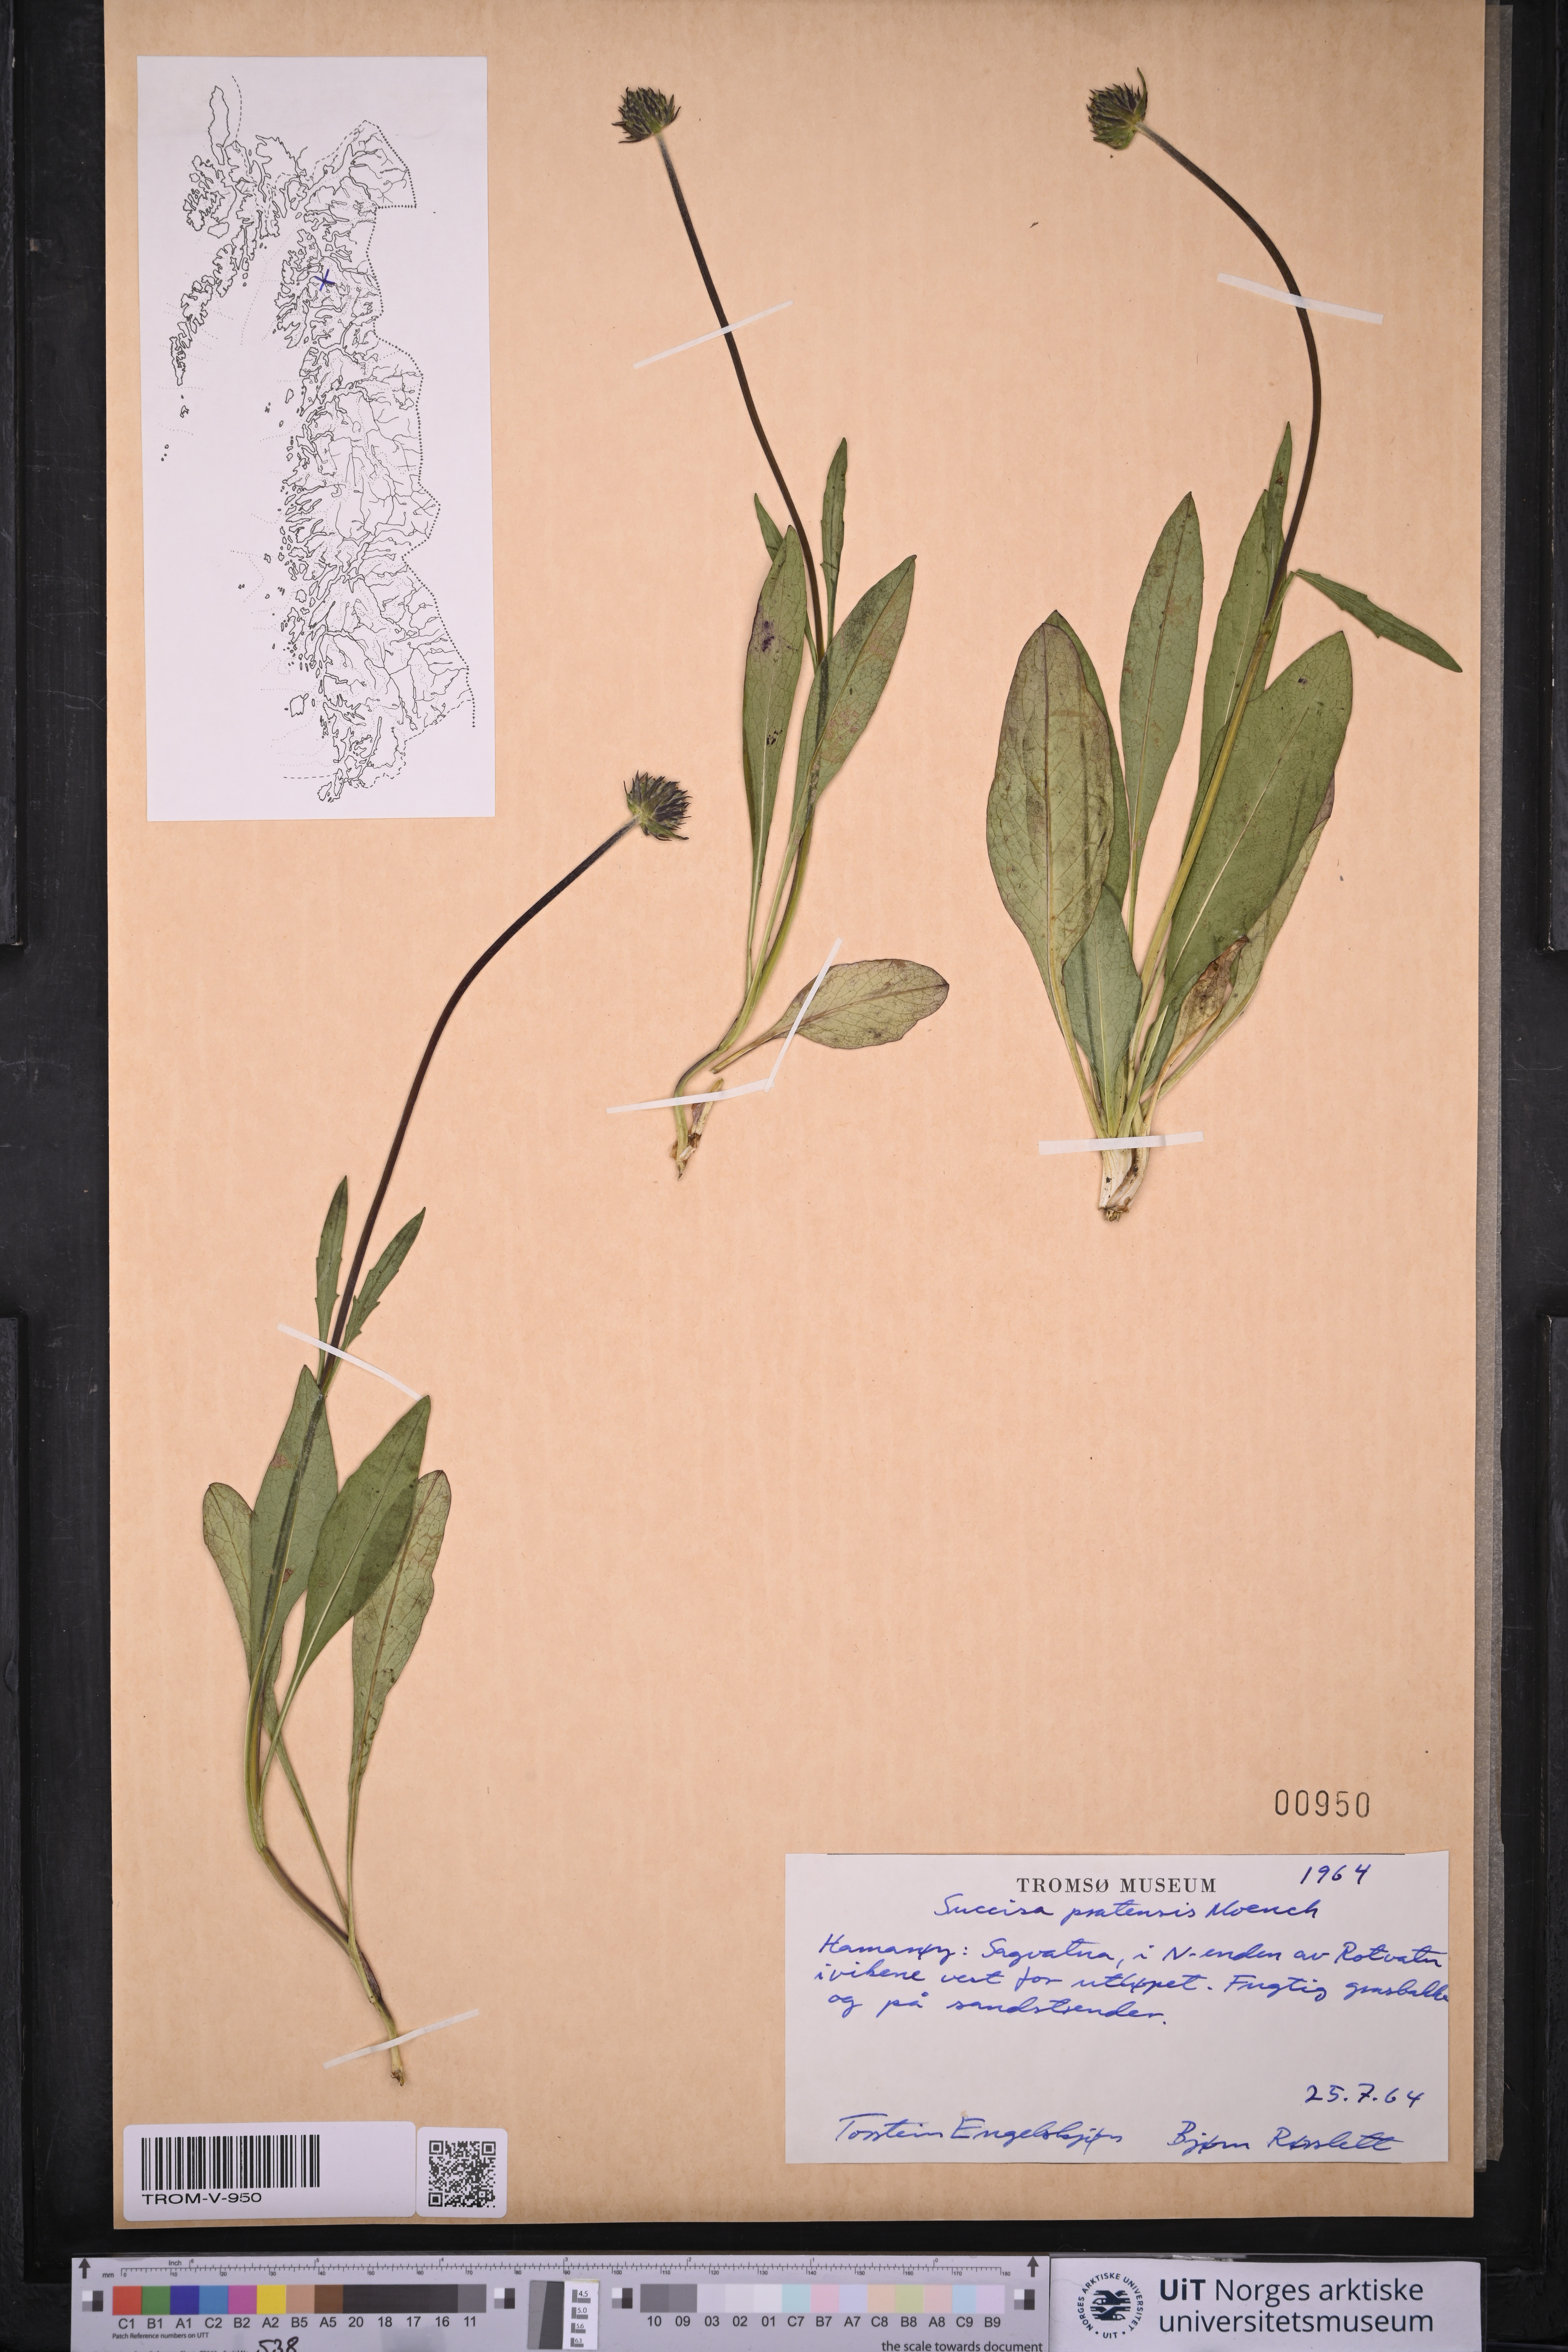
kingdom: Plantae
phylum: Tracheophyta
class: Magnoliopsida
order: Dipsacales
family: Caprifoliaceae
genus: Succisa
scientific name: Succisa pratensis
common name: Devil's-bit
